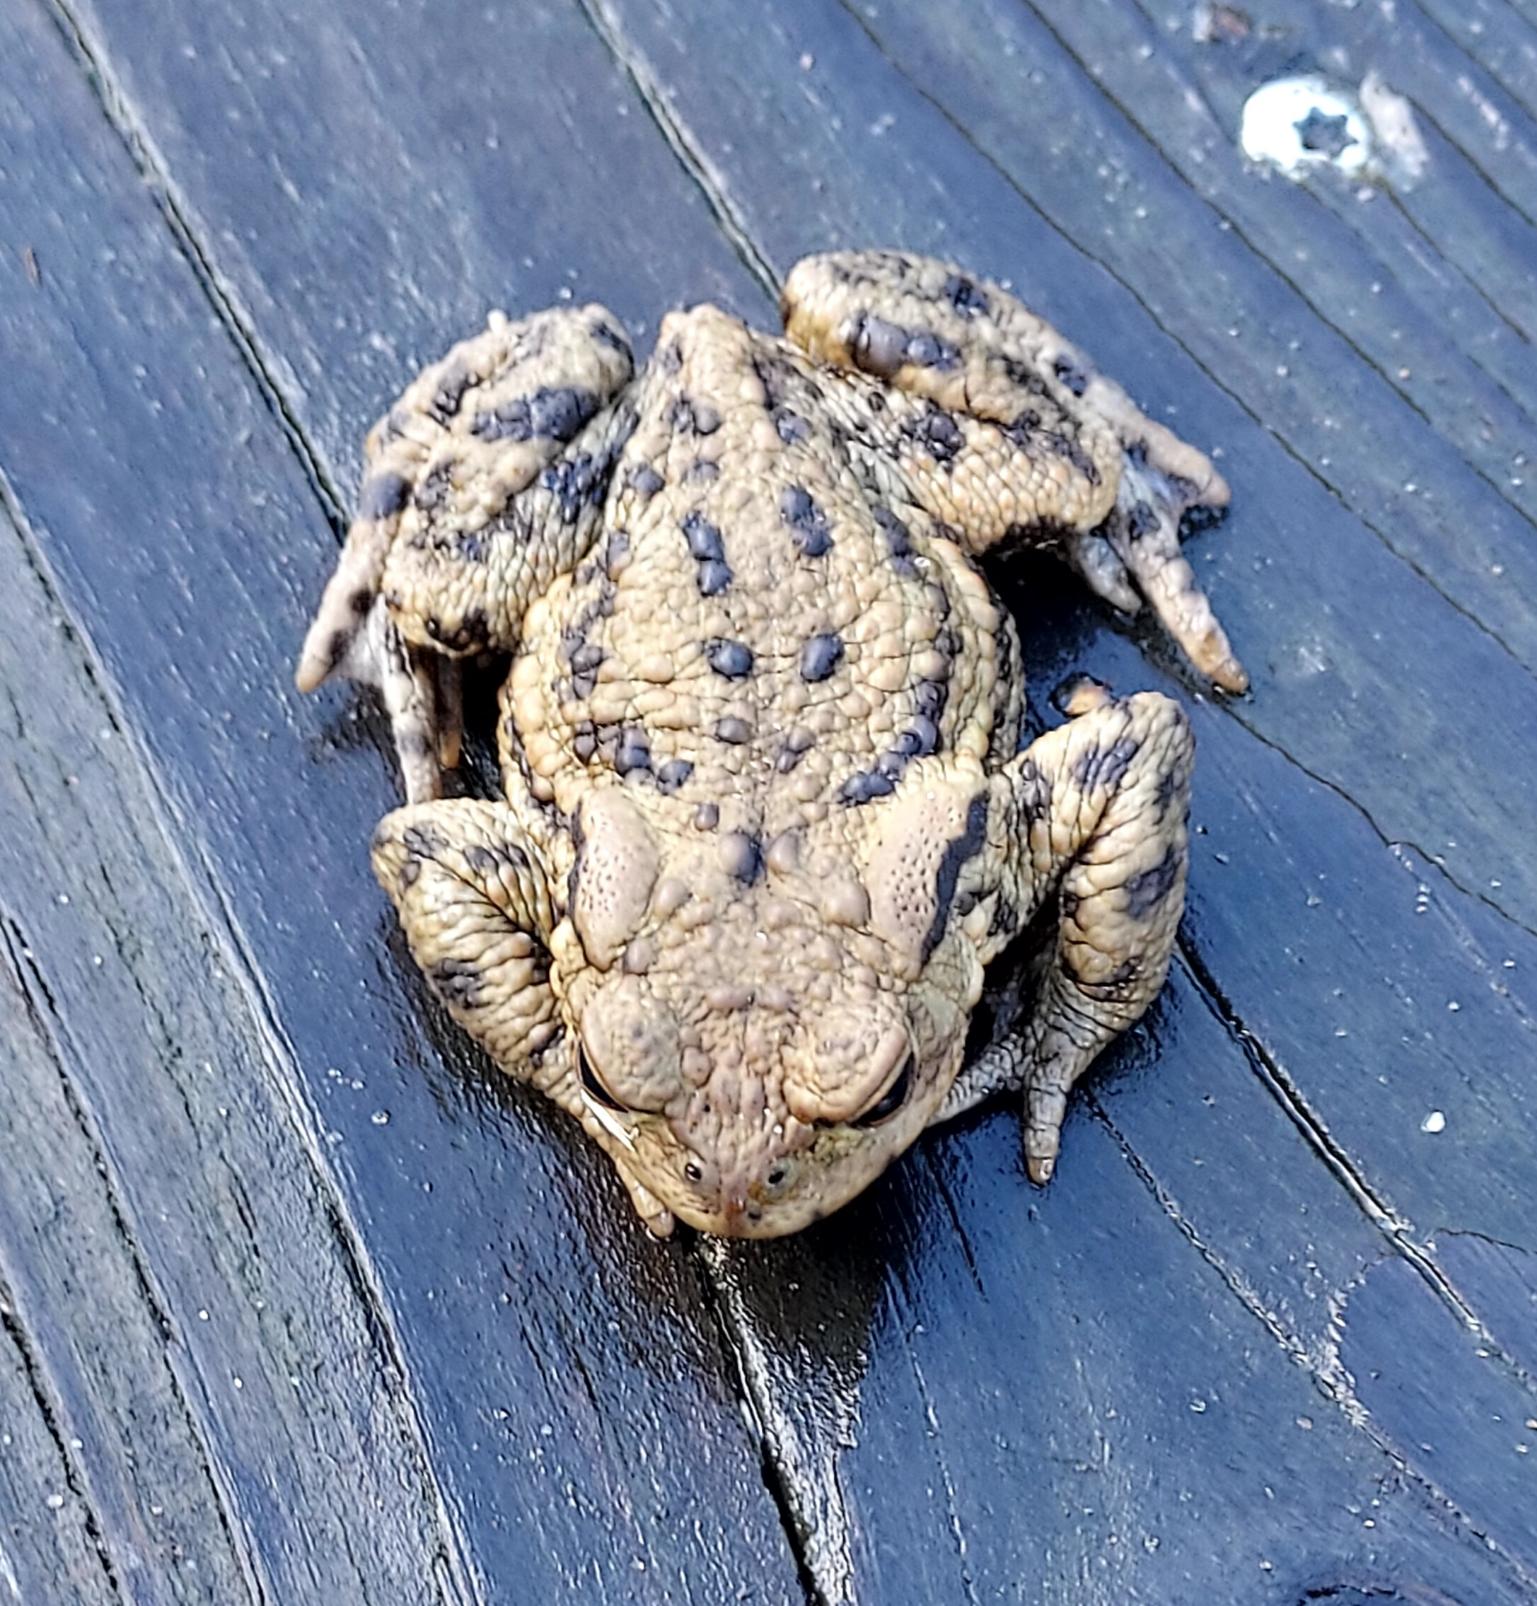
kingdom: Animalia
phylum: Chordata
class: Amphibia
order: Anura
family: Bufonidae
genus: Bufo
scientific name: Bufo bufo
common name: Skrubtudse
